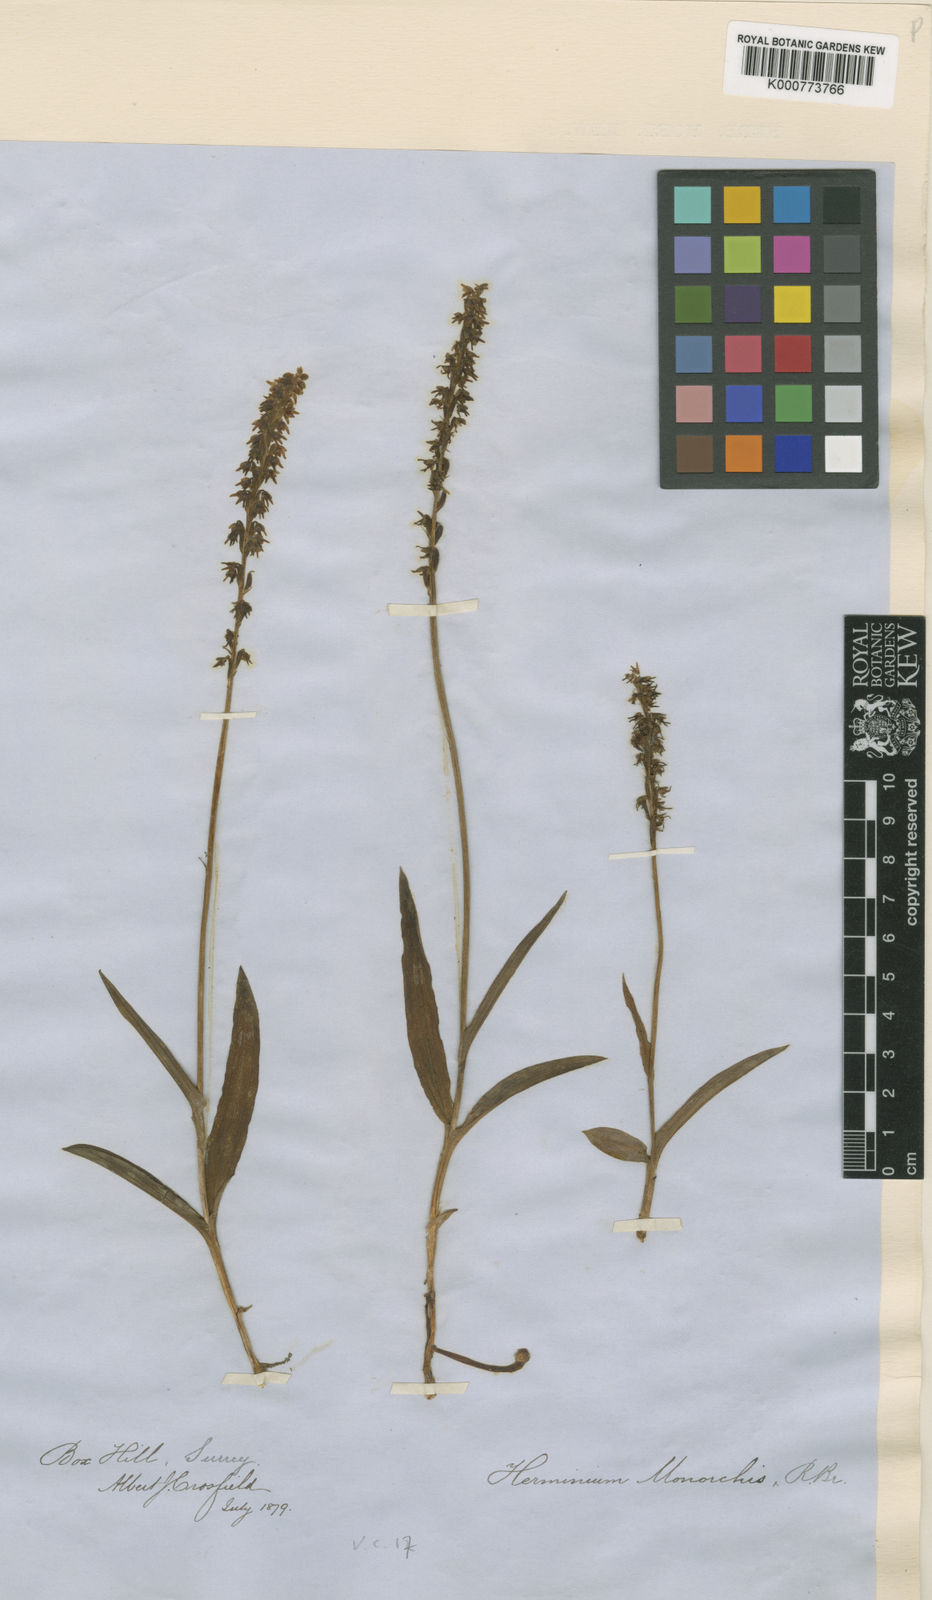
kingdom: Plantae
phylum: Tracheophyta
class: Liliopsida
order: Asparagales
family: Orchidaceae
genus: Herminium
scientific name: Herminium monorchis
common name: Musk orchid
